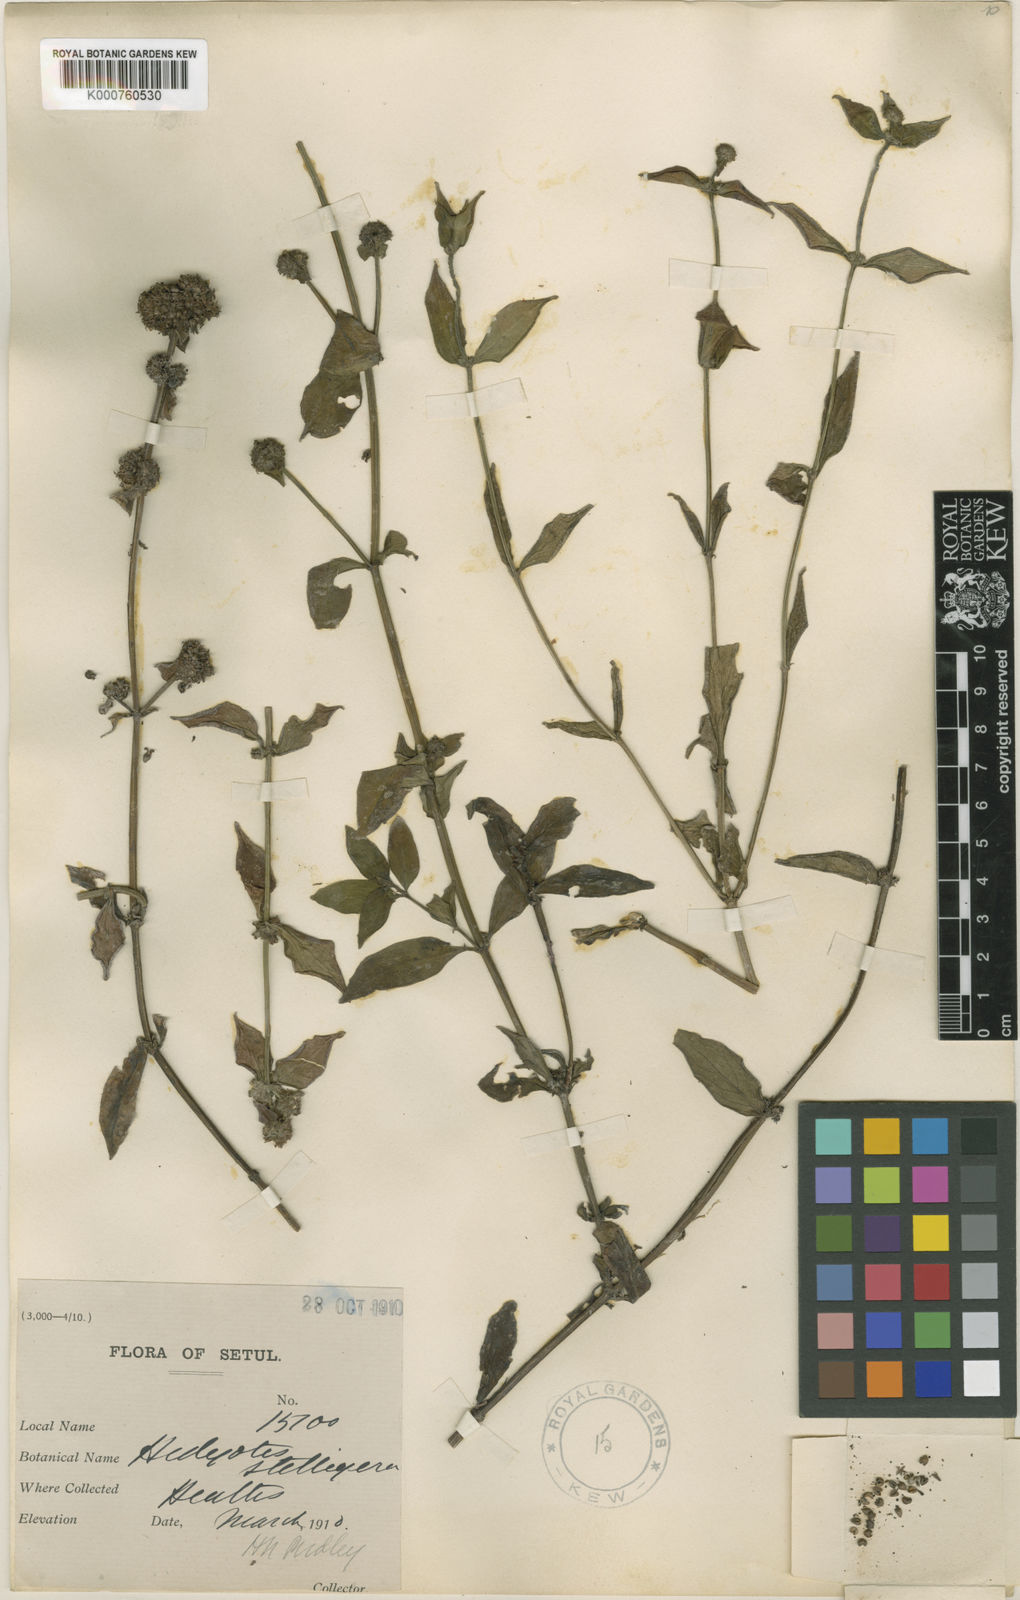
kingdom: Plantae
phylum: Tracheophyta
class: Magnoliopsida
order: Gentianales
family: Rubiaceae
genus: Oldenlandia
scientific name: Oldenlandia
